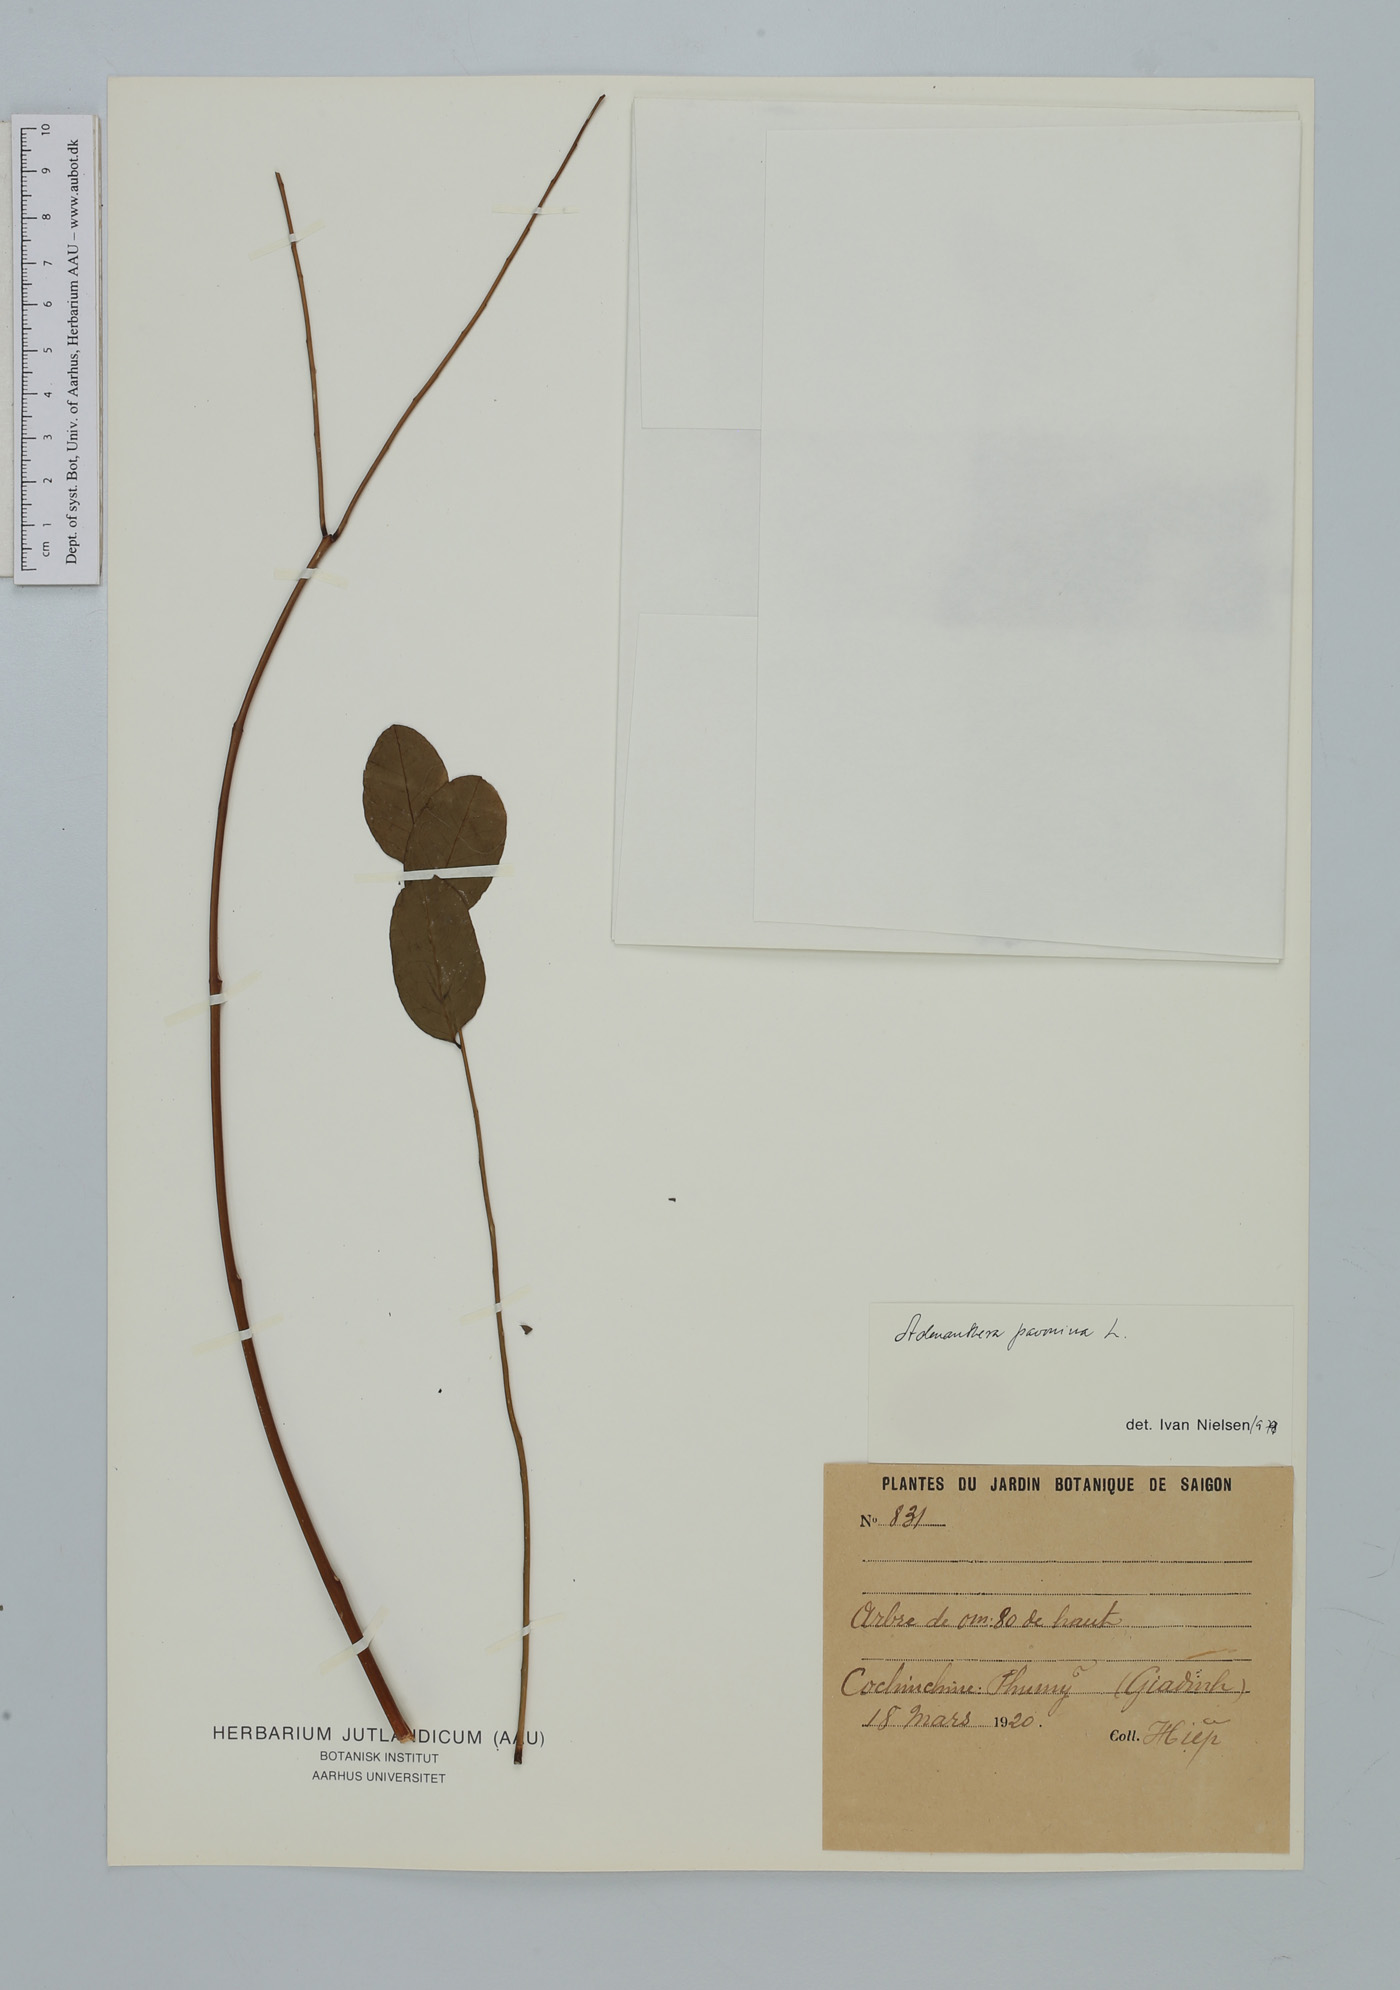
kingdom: Plantae
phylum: Tracheophyta
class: Magnoliopsida
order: Fabales
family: Fabaceae
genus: Adenanthera
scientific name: Adenanthera pavonina
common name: Red beadtree
